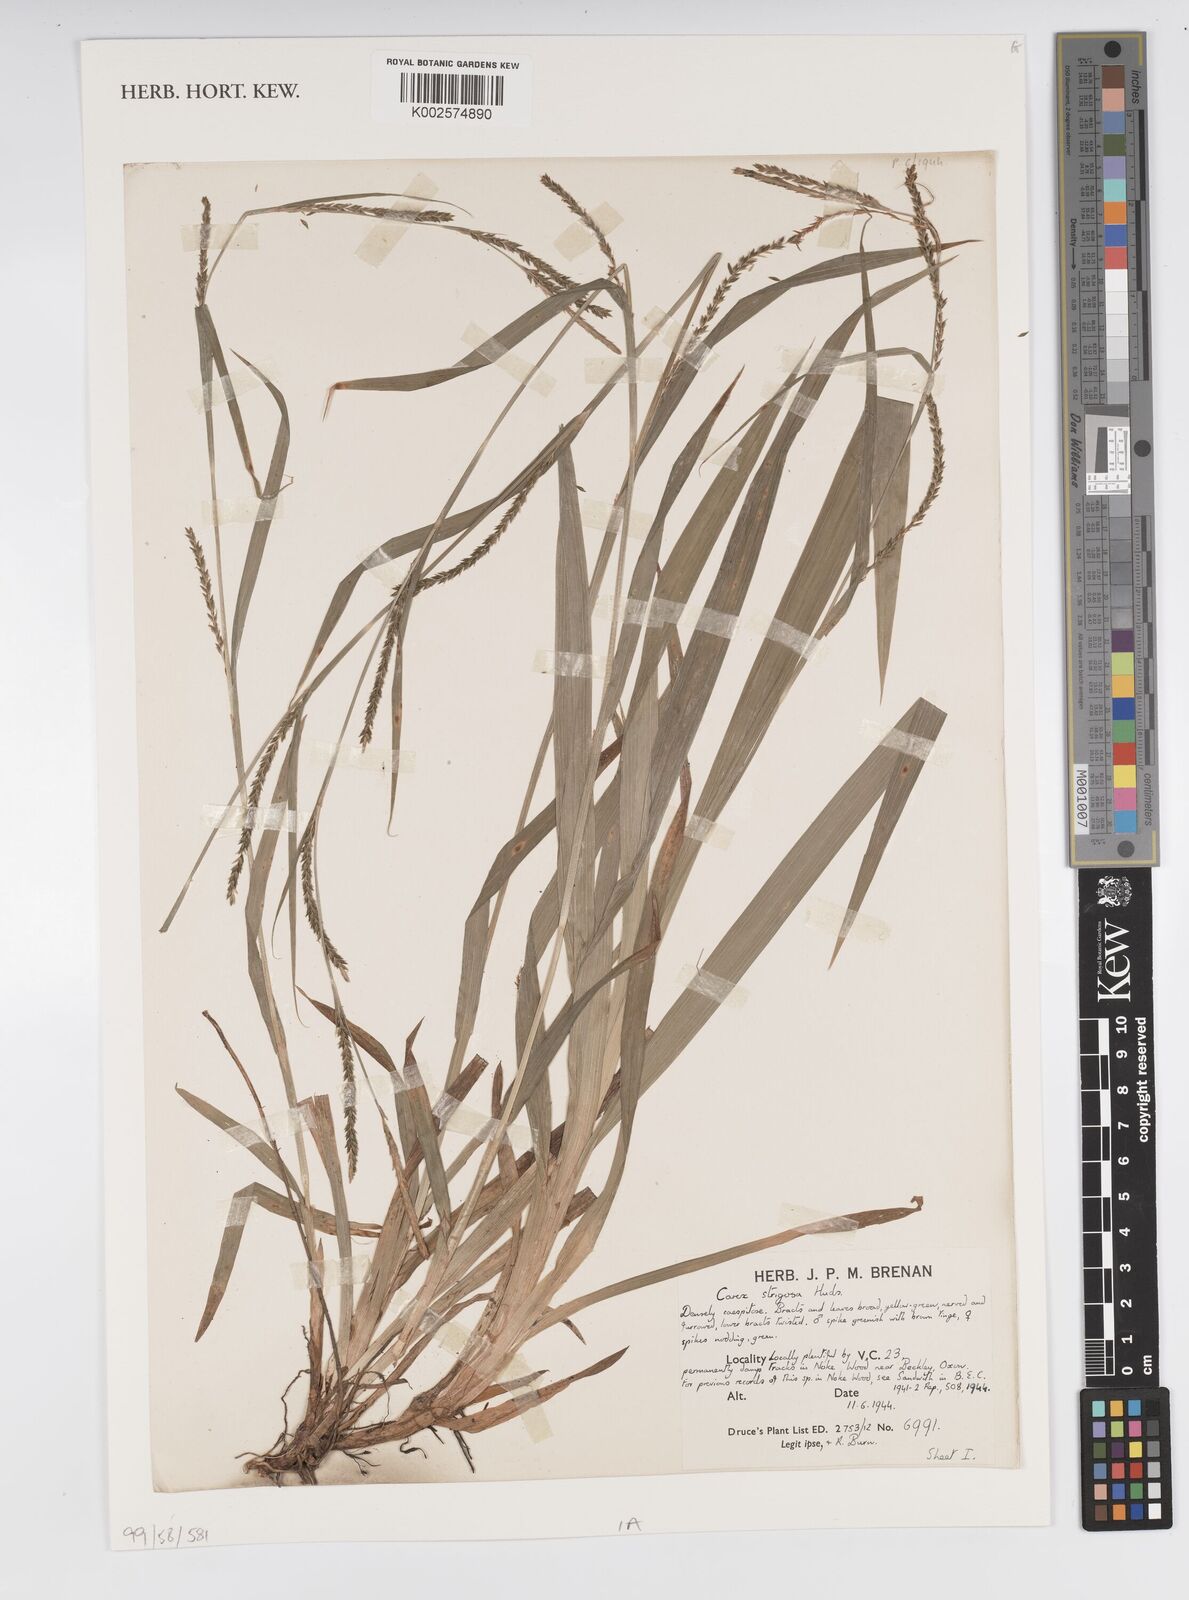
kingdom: Plantae
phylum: Tracheophyta
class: Liliopsida
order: Poales
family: Cyperaceae
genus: Carex
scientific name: Carex strigosa
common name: Thin-spiked wood-sedge
